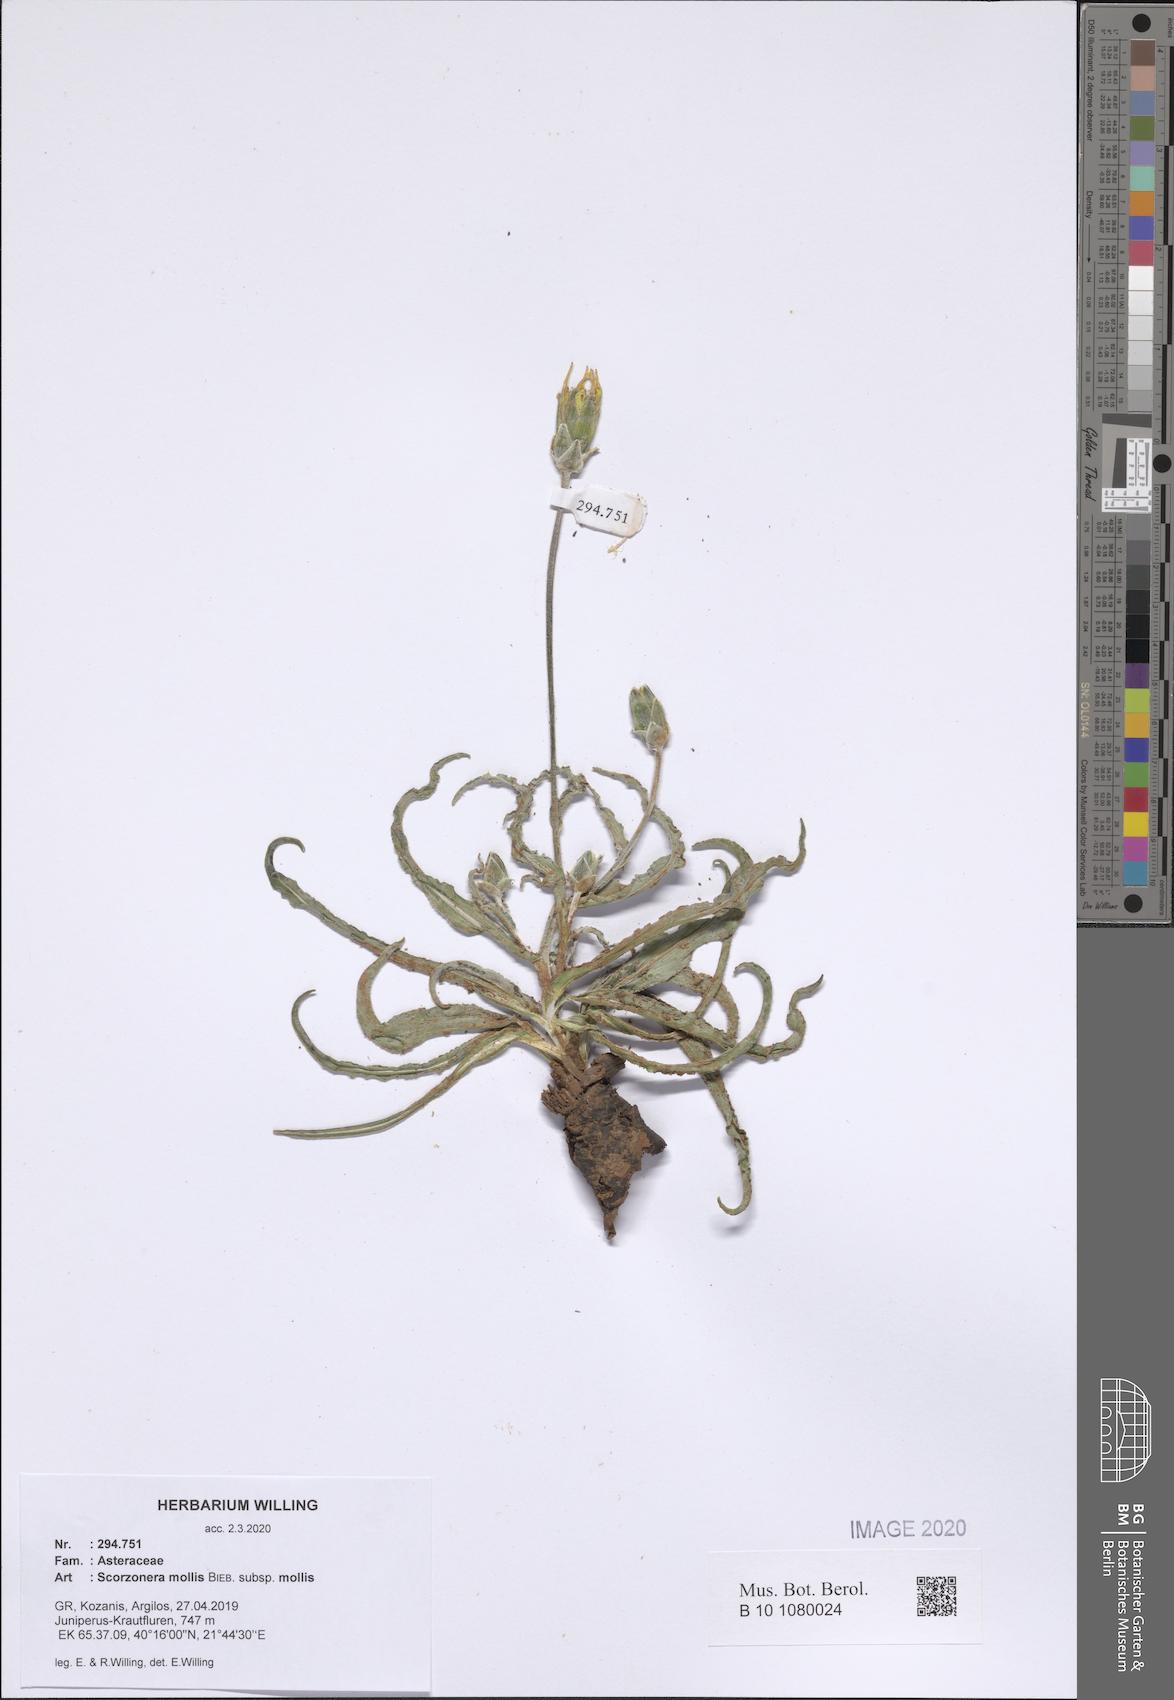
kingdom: Plantae
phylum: Tracheophyta
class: Magnoliopsida
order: Asterales
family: Asteraceae
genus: Candollea
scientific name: Candollea mollis
